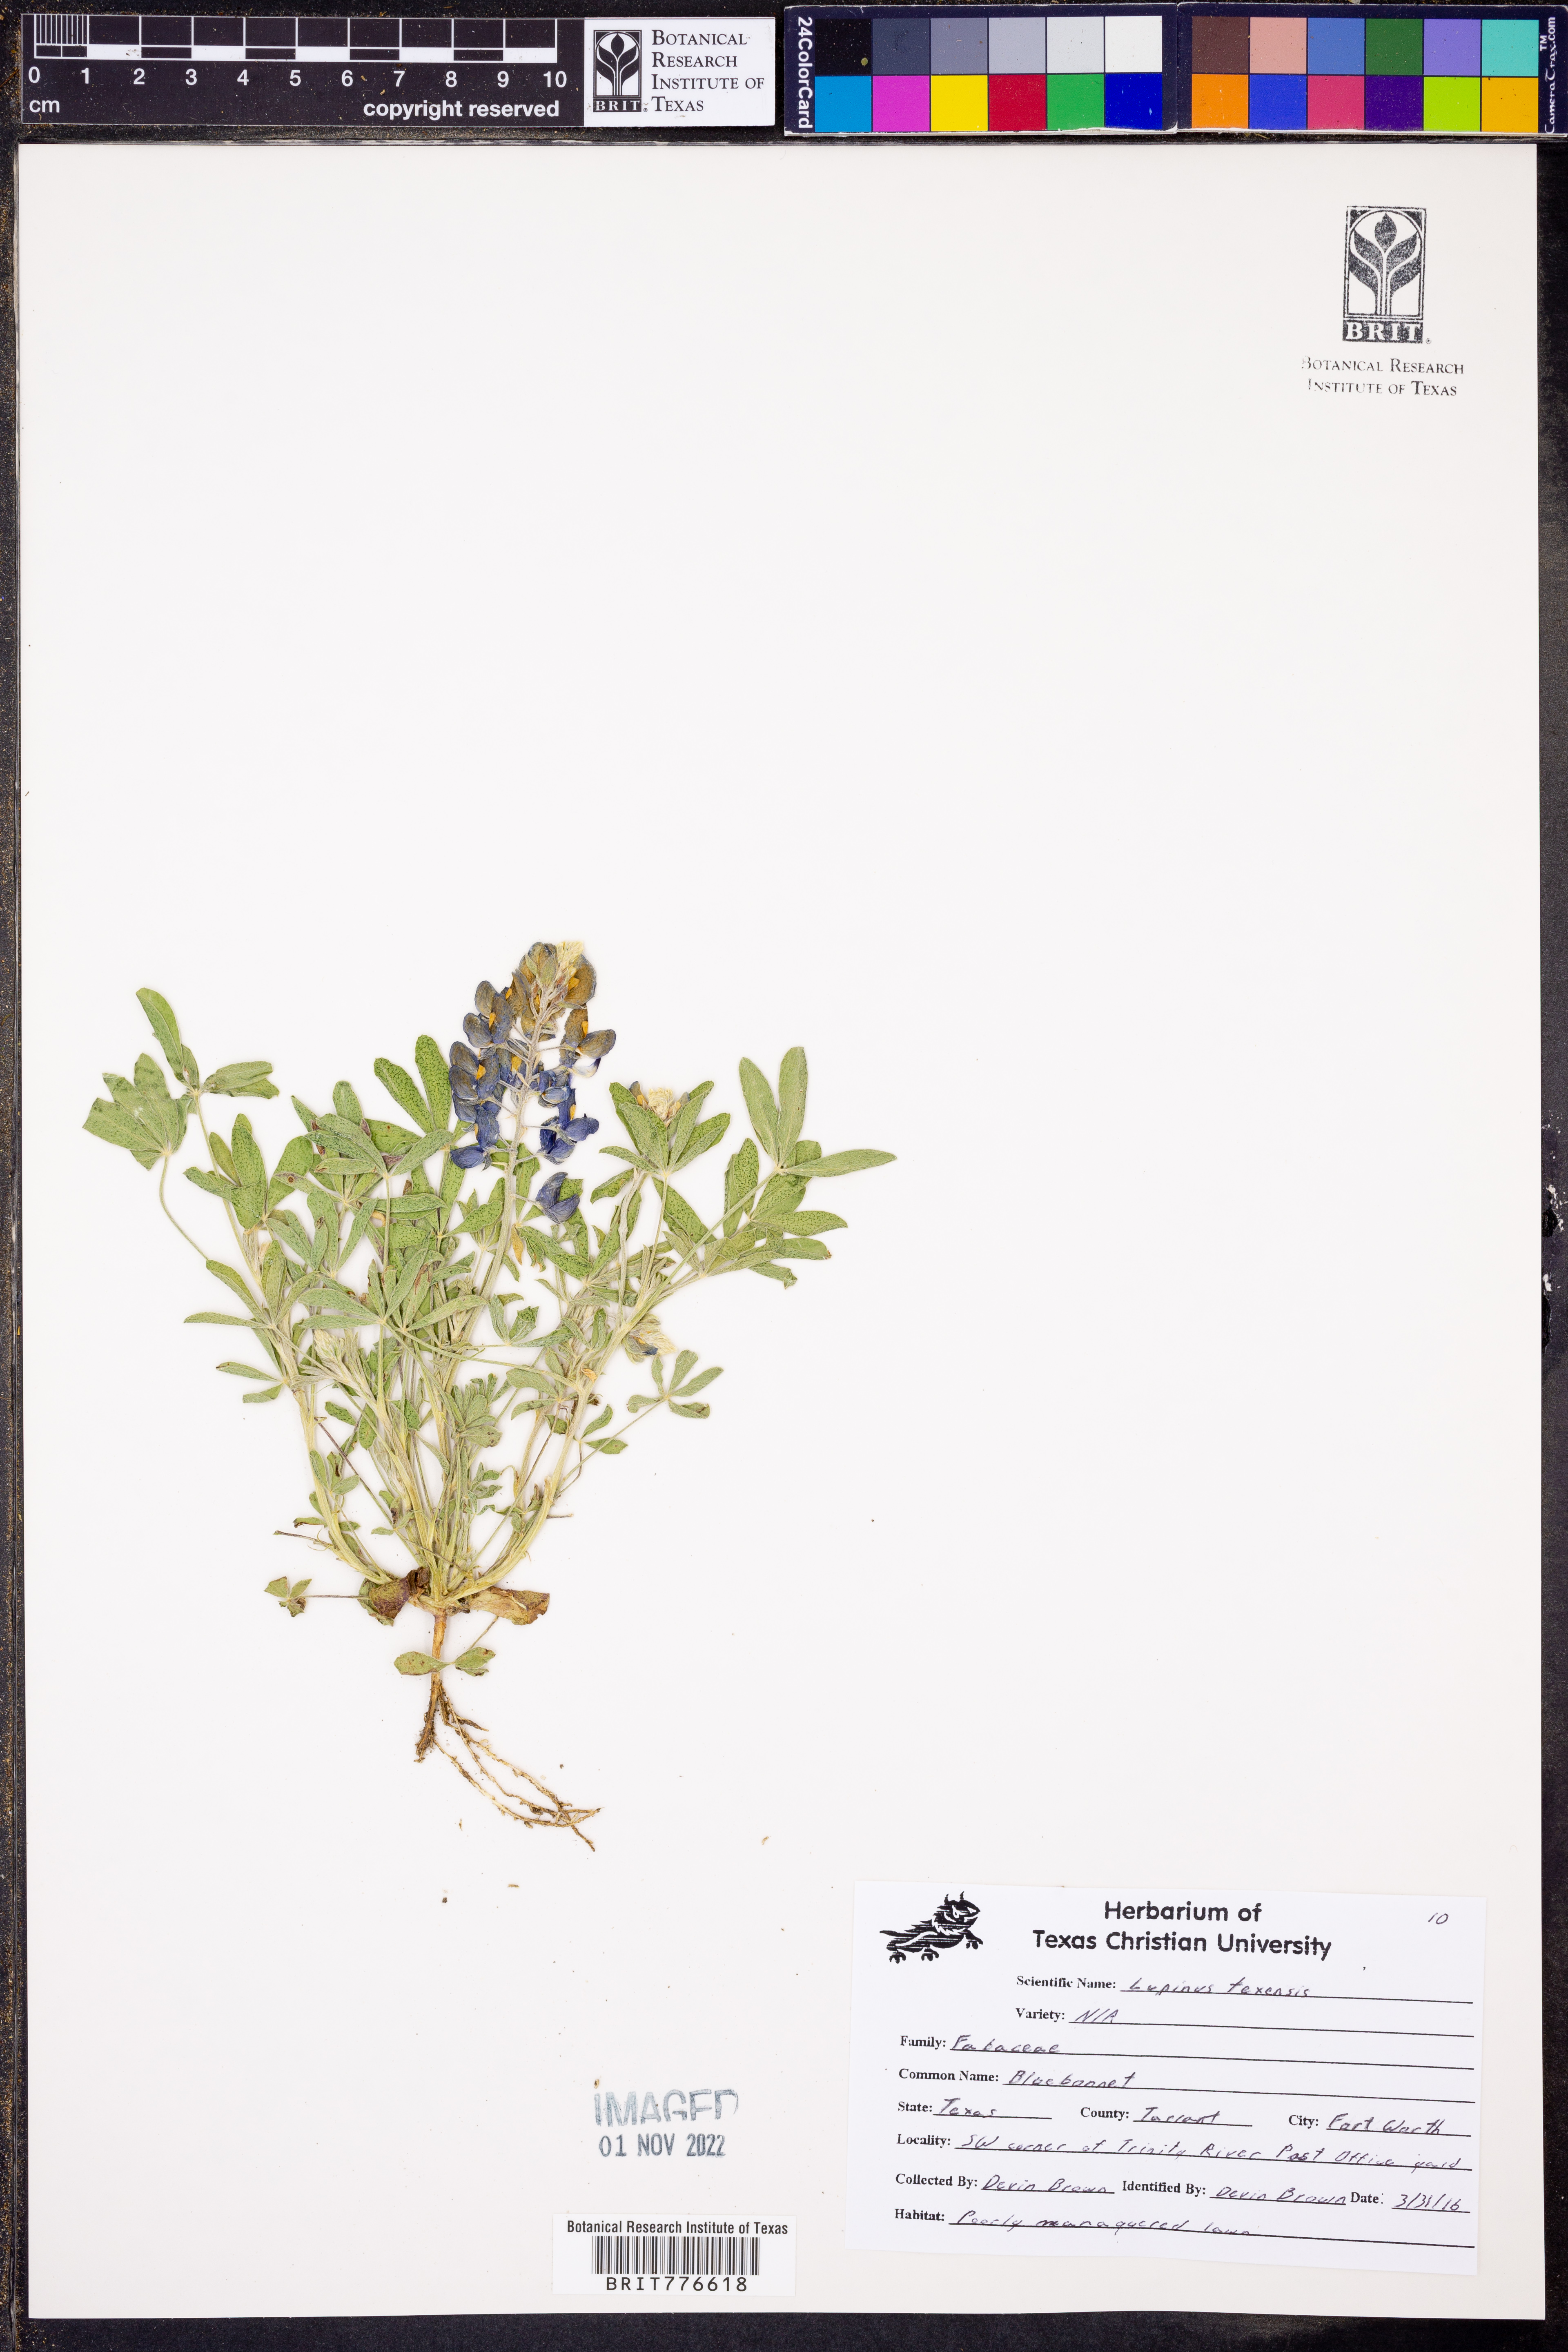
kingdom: Plantae
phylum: Tracheophyta
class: Magnoliopsida
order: Fabales
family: Fabaceae
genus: Lupinus
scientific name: Lupinus texensis
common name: Texas bluebonnet
